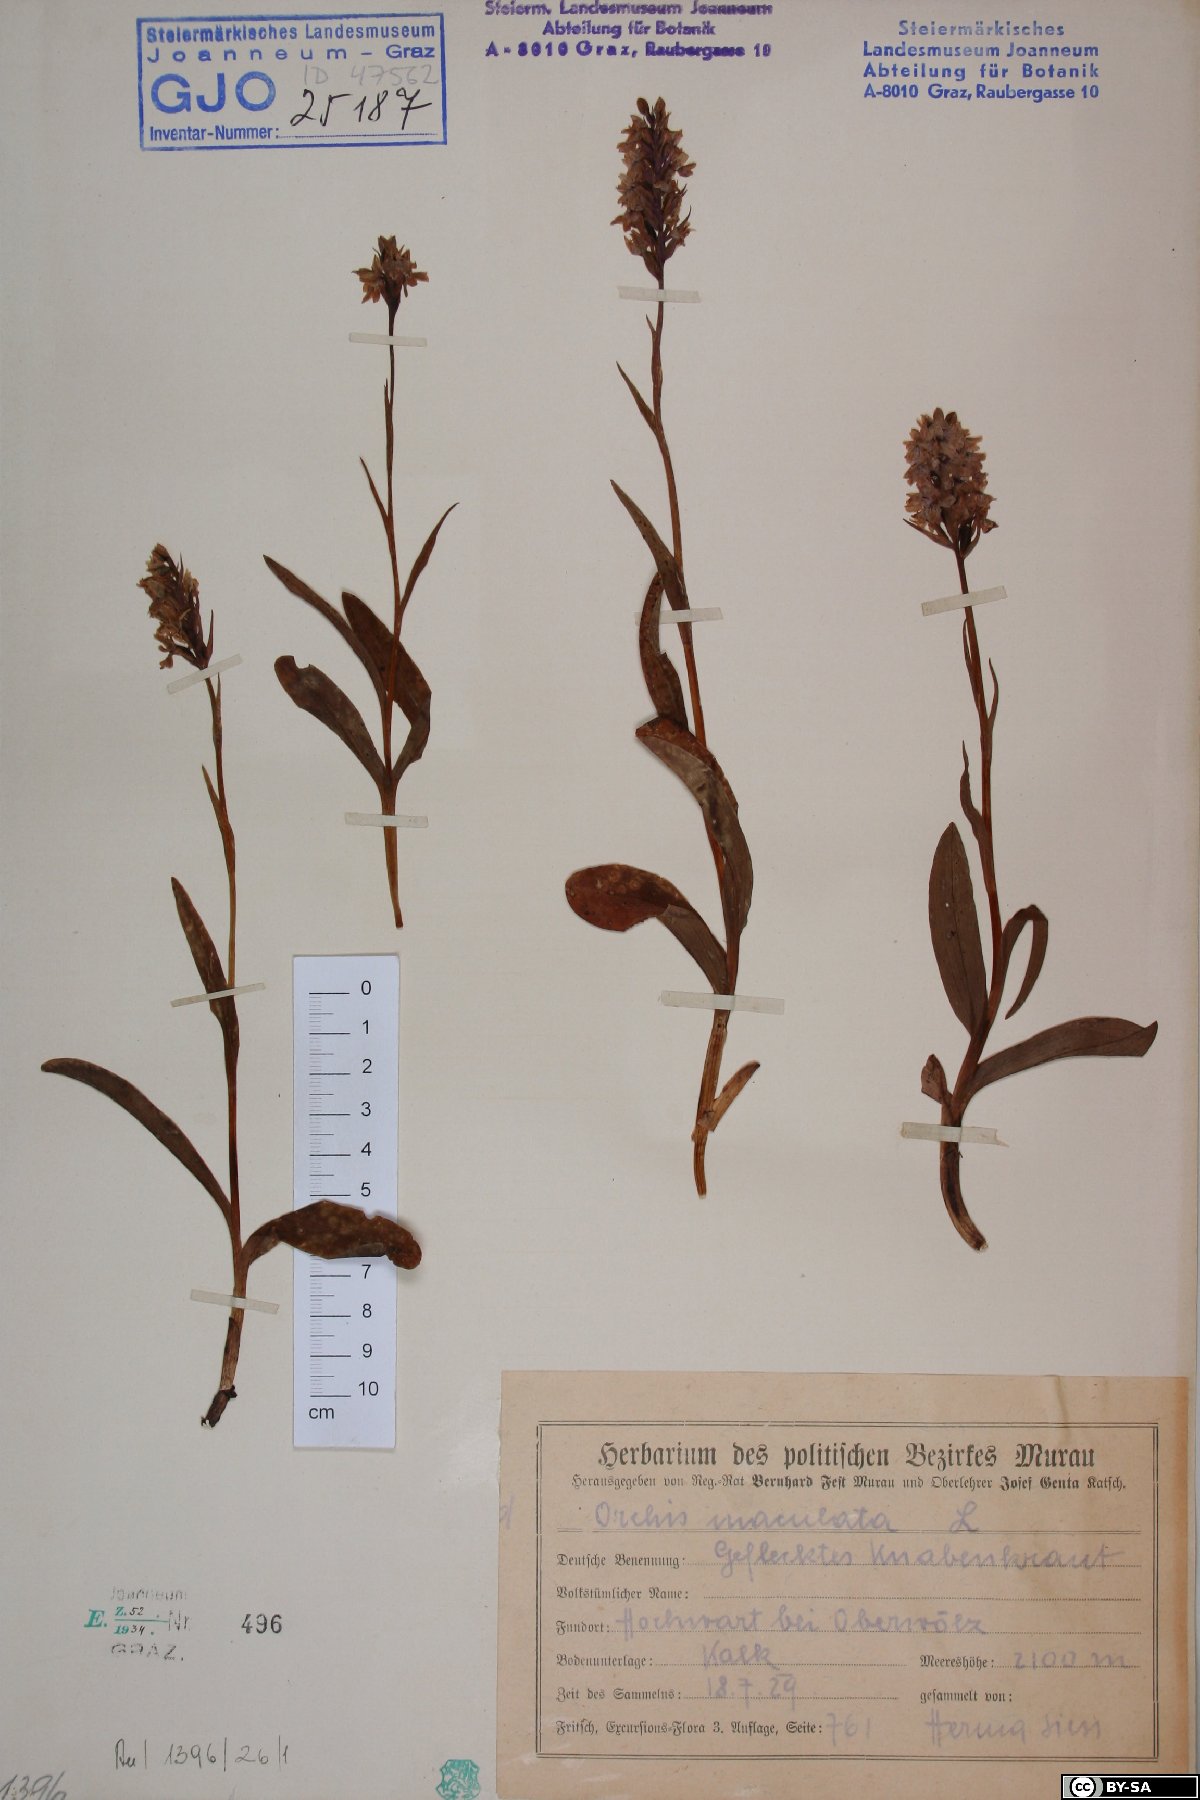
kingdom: Plantae
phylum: Tracheophyta
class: Liliopsida
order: Asparagales
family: Orchidaceae
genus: Dactylorhiza
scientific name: Dactylorhiza maculata
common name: Heath spotted-orchid
